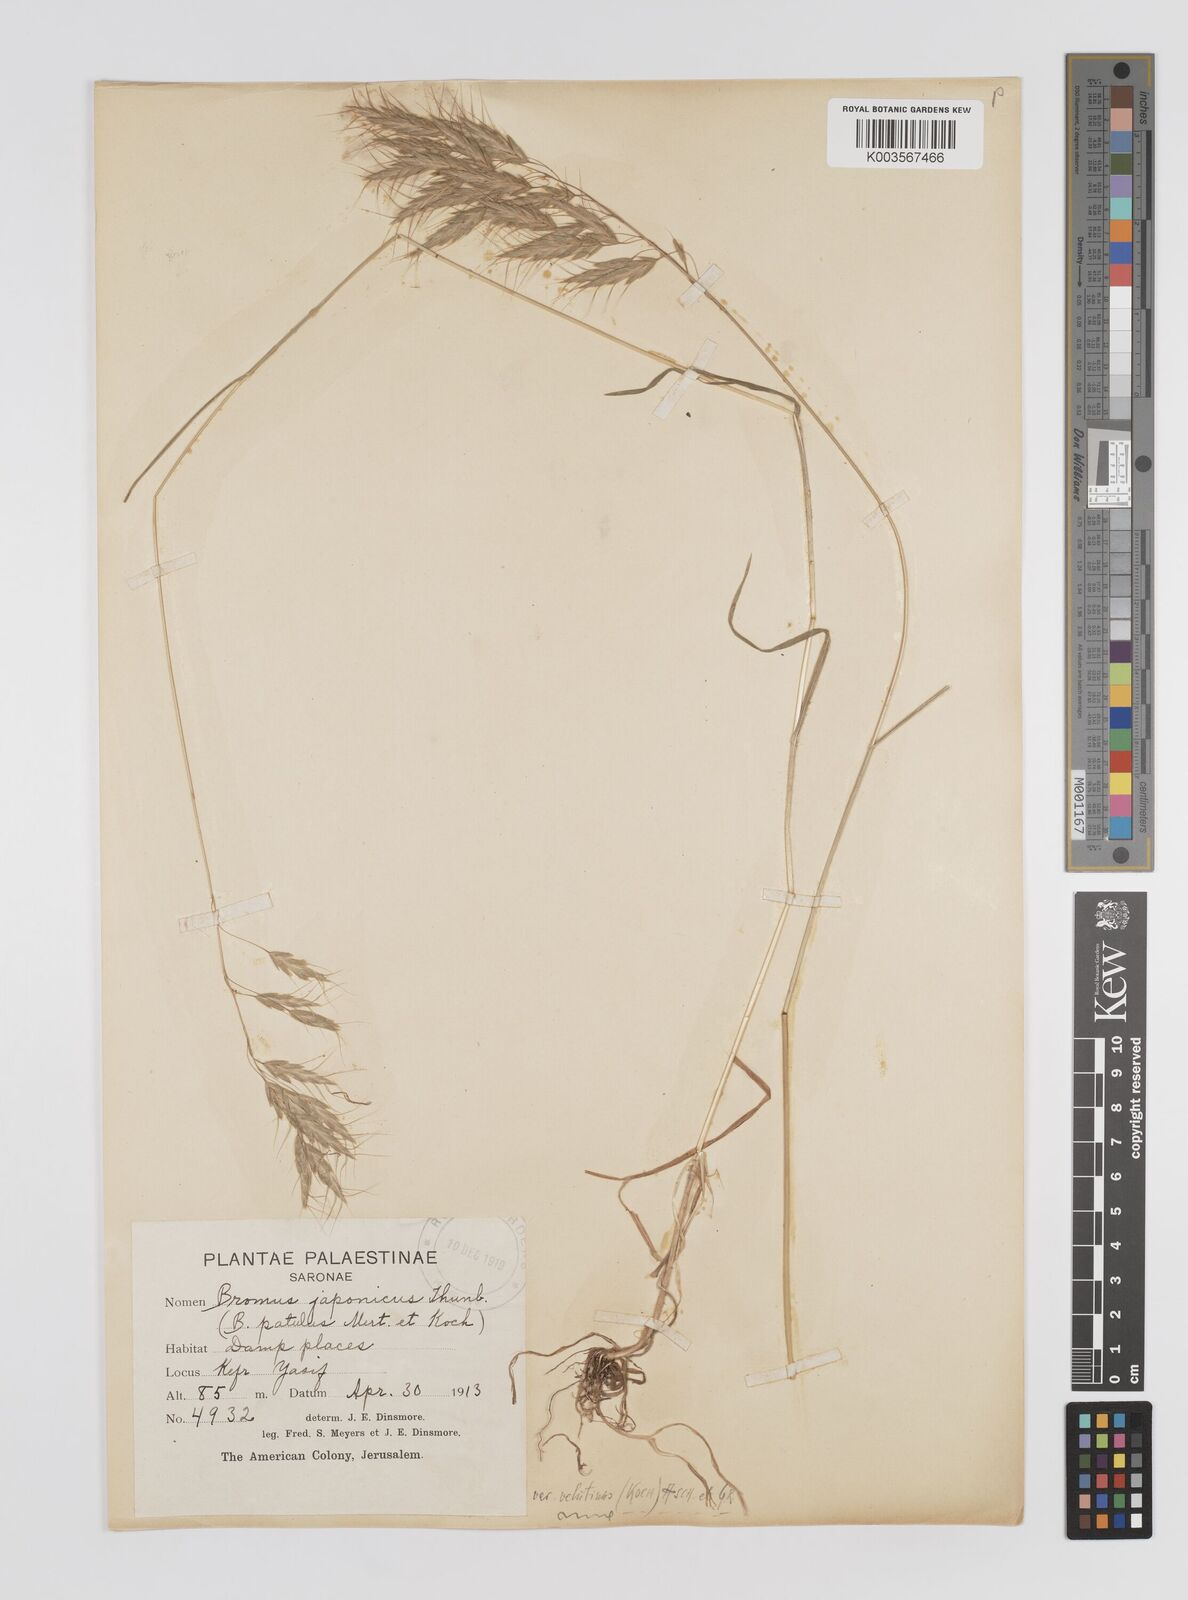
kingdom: Plantae
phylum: Tracheophyta
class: Liliopsida
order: Poales
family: Poaceae
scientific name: Poaceae
